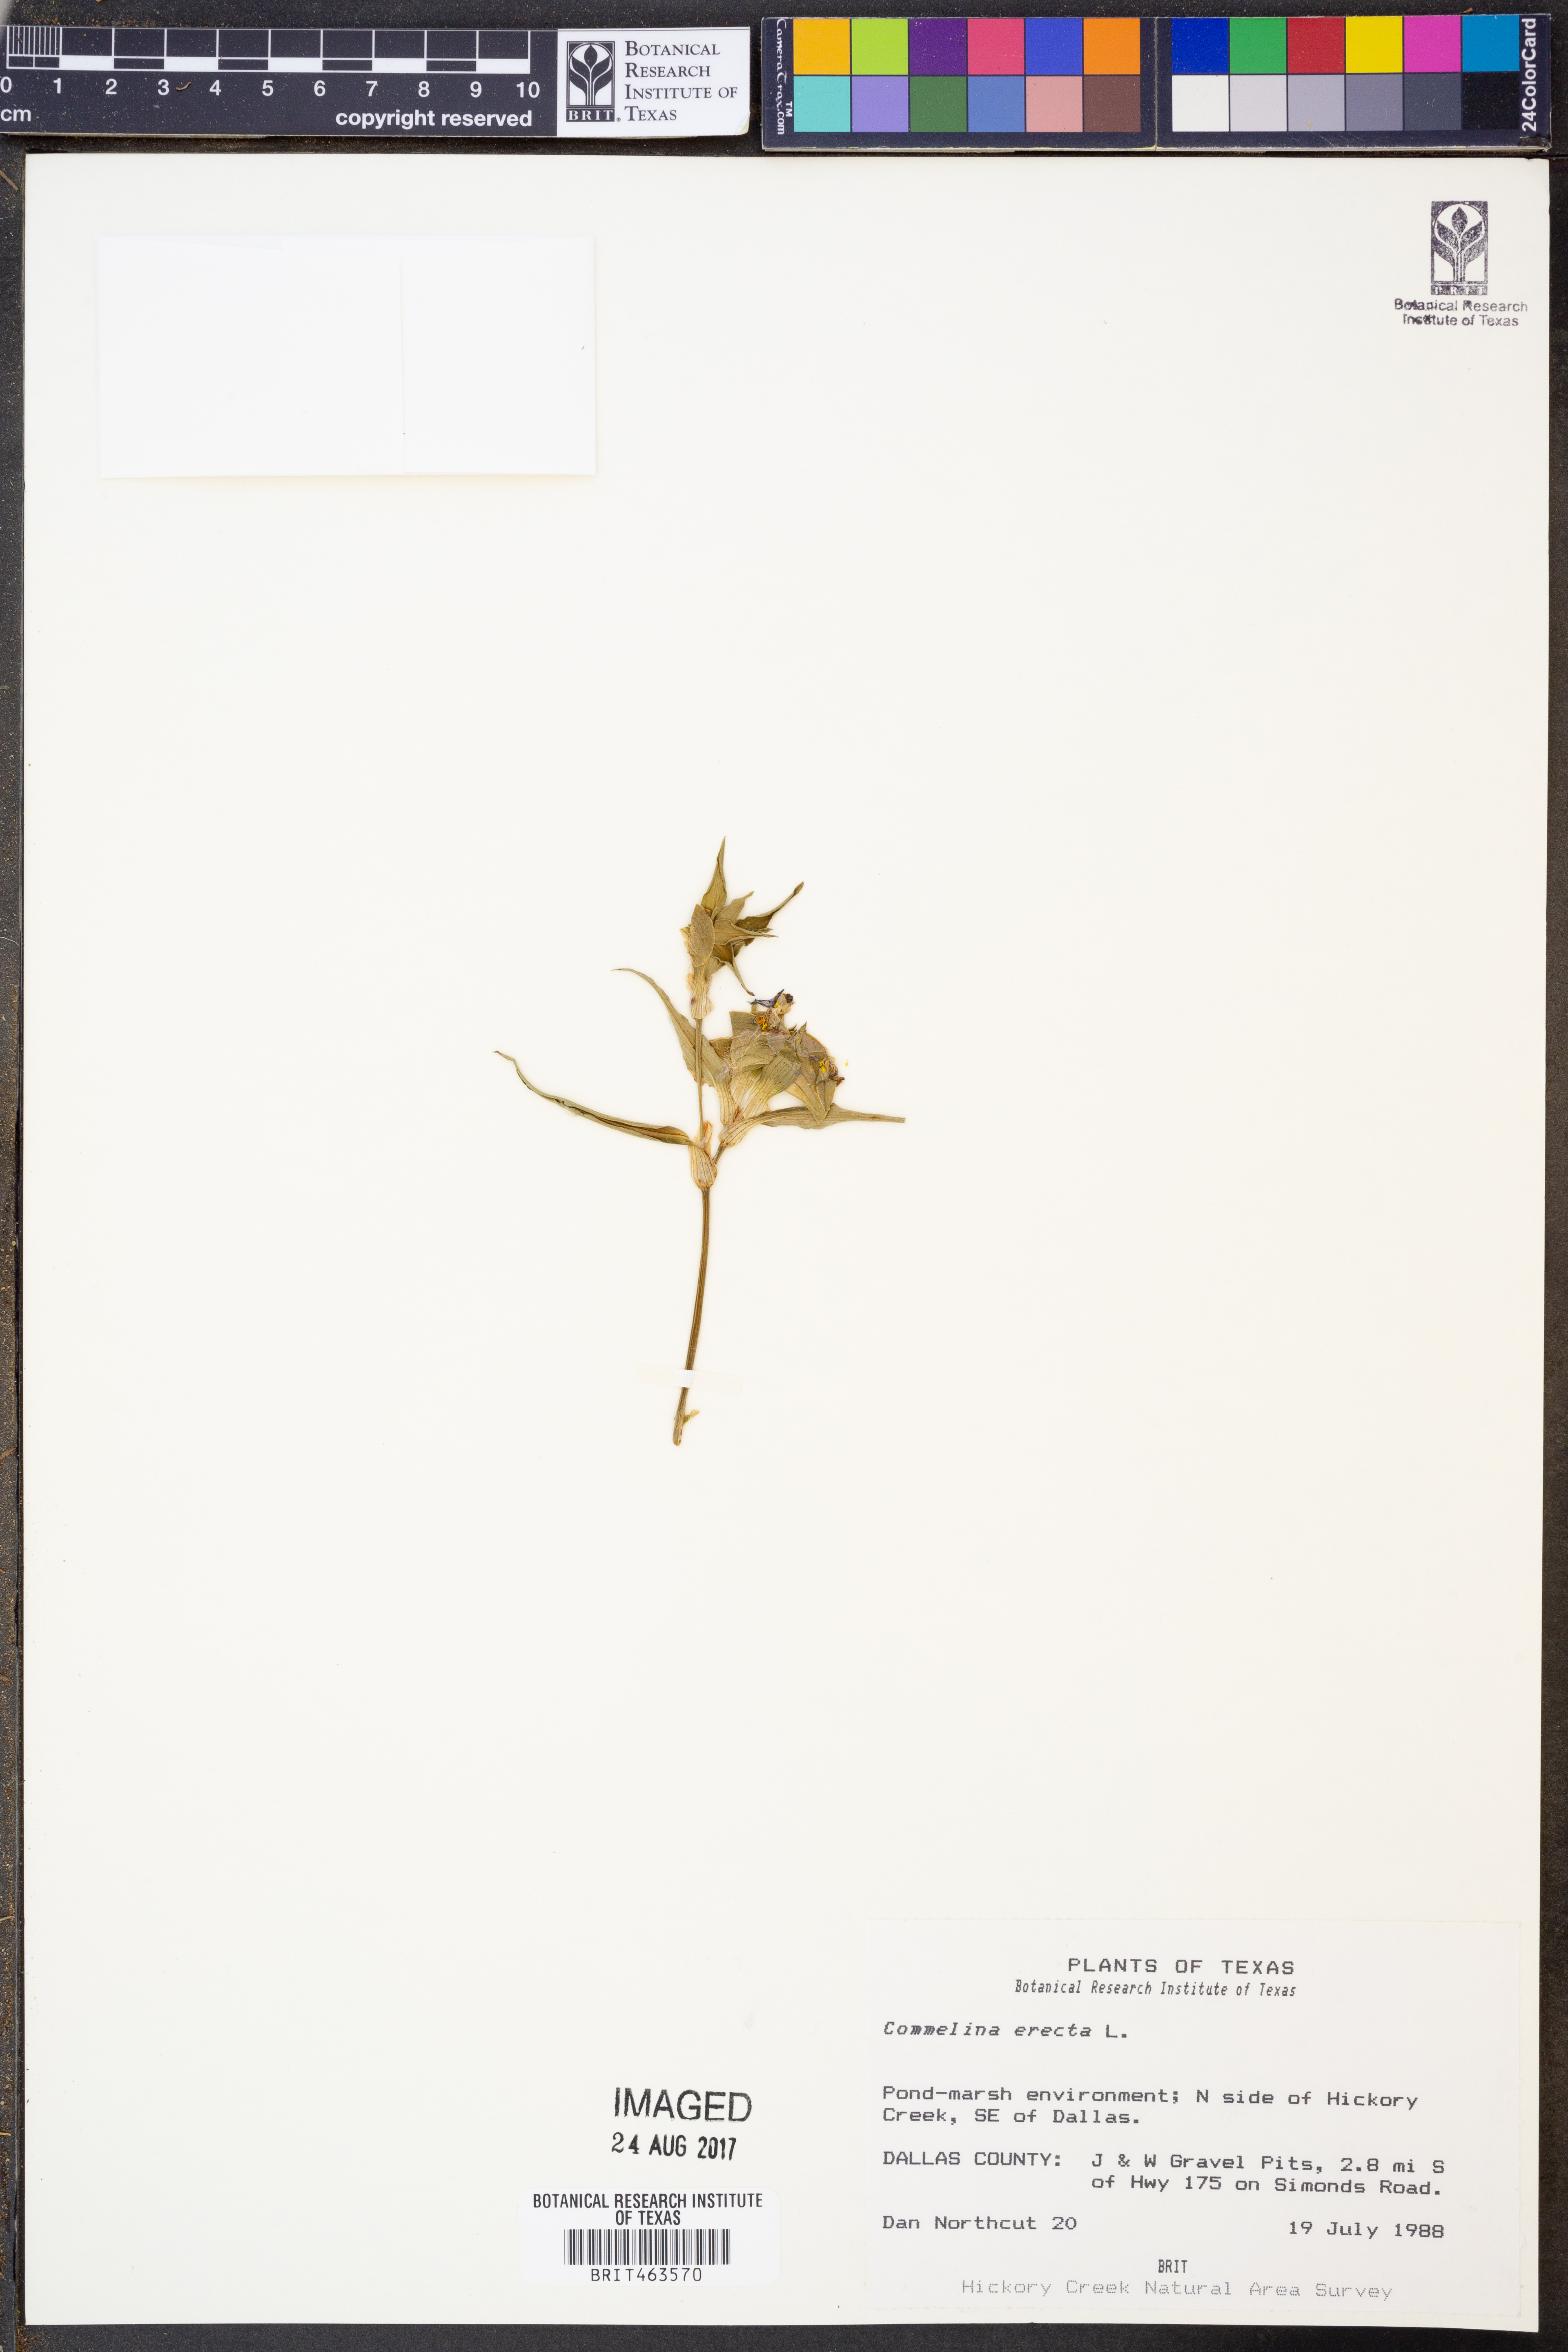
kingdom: Plantae
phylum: Tracheophyta
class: Liliopsida
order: Commelinales
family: Commelinaceae
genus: Commelina
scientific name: Commelina erecta
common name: Blousel blommetjie
